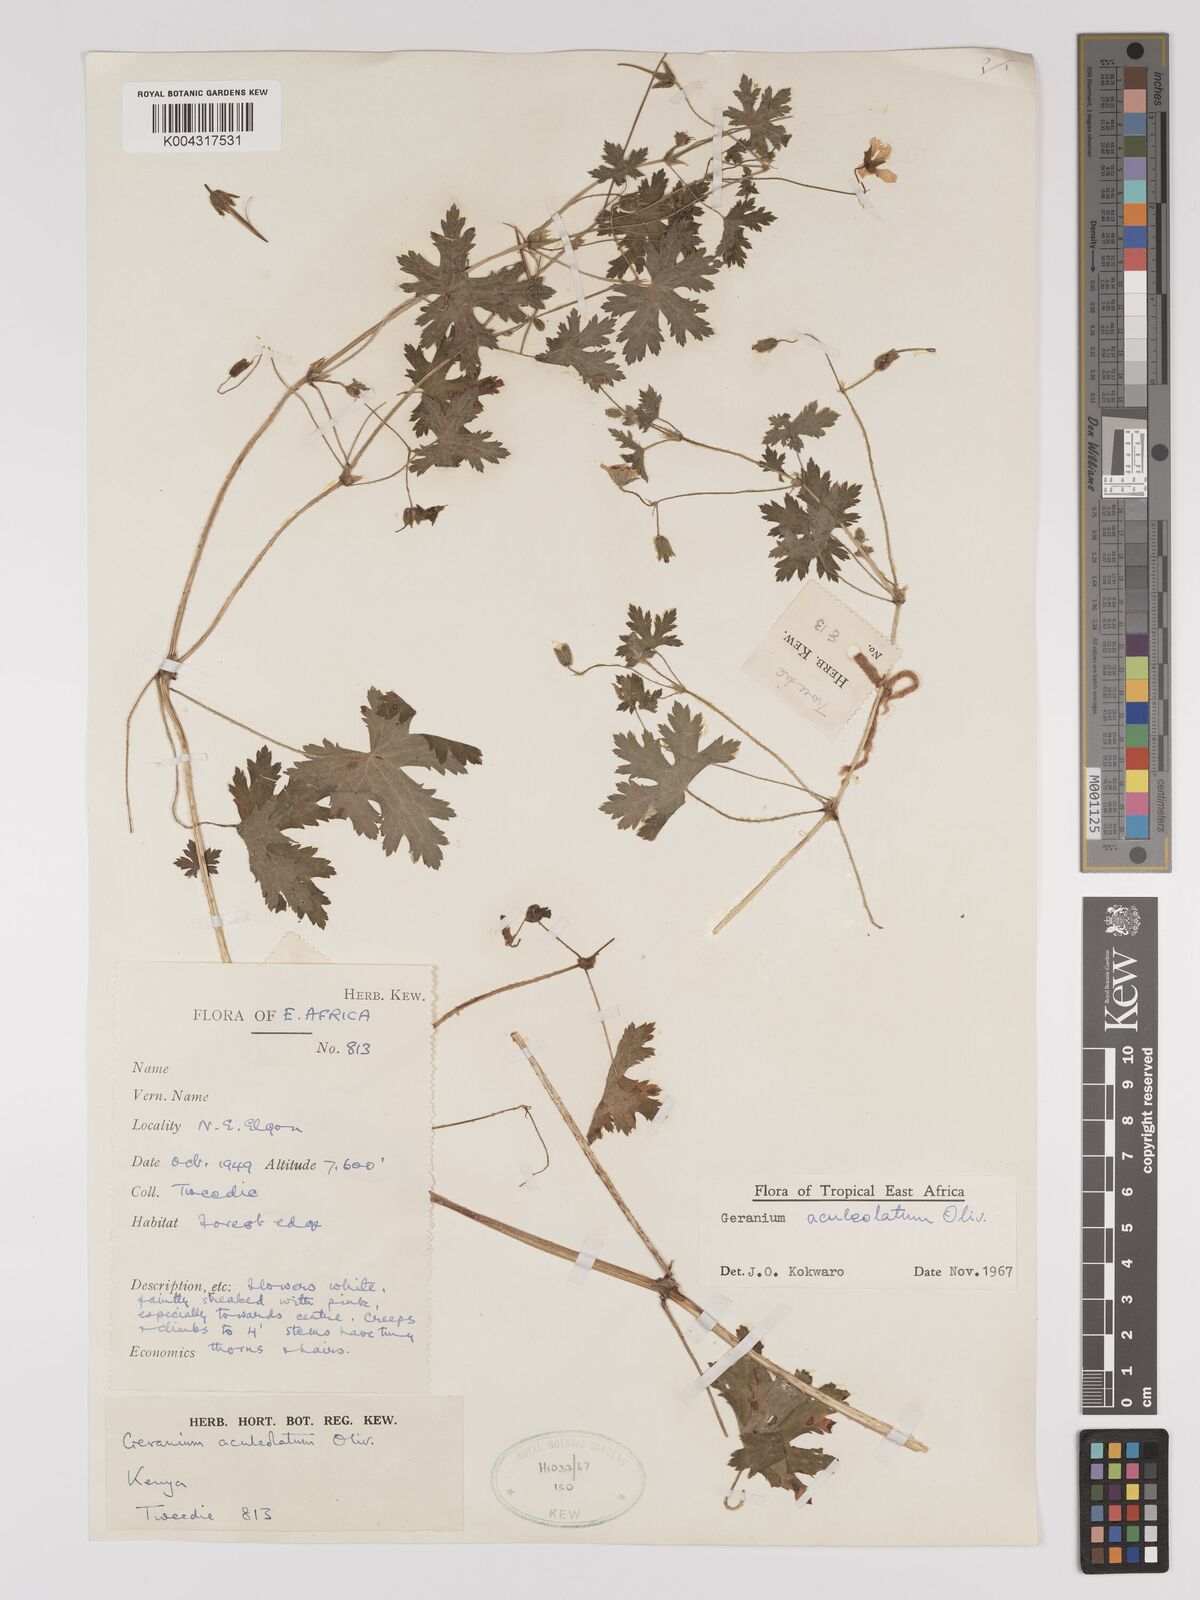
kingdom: Plantae
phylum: Tracheophyta
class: Magnoliopsida
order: Geraniales
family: Geraniaceae
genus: Geranium
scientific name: Geranium aculeolatum
